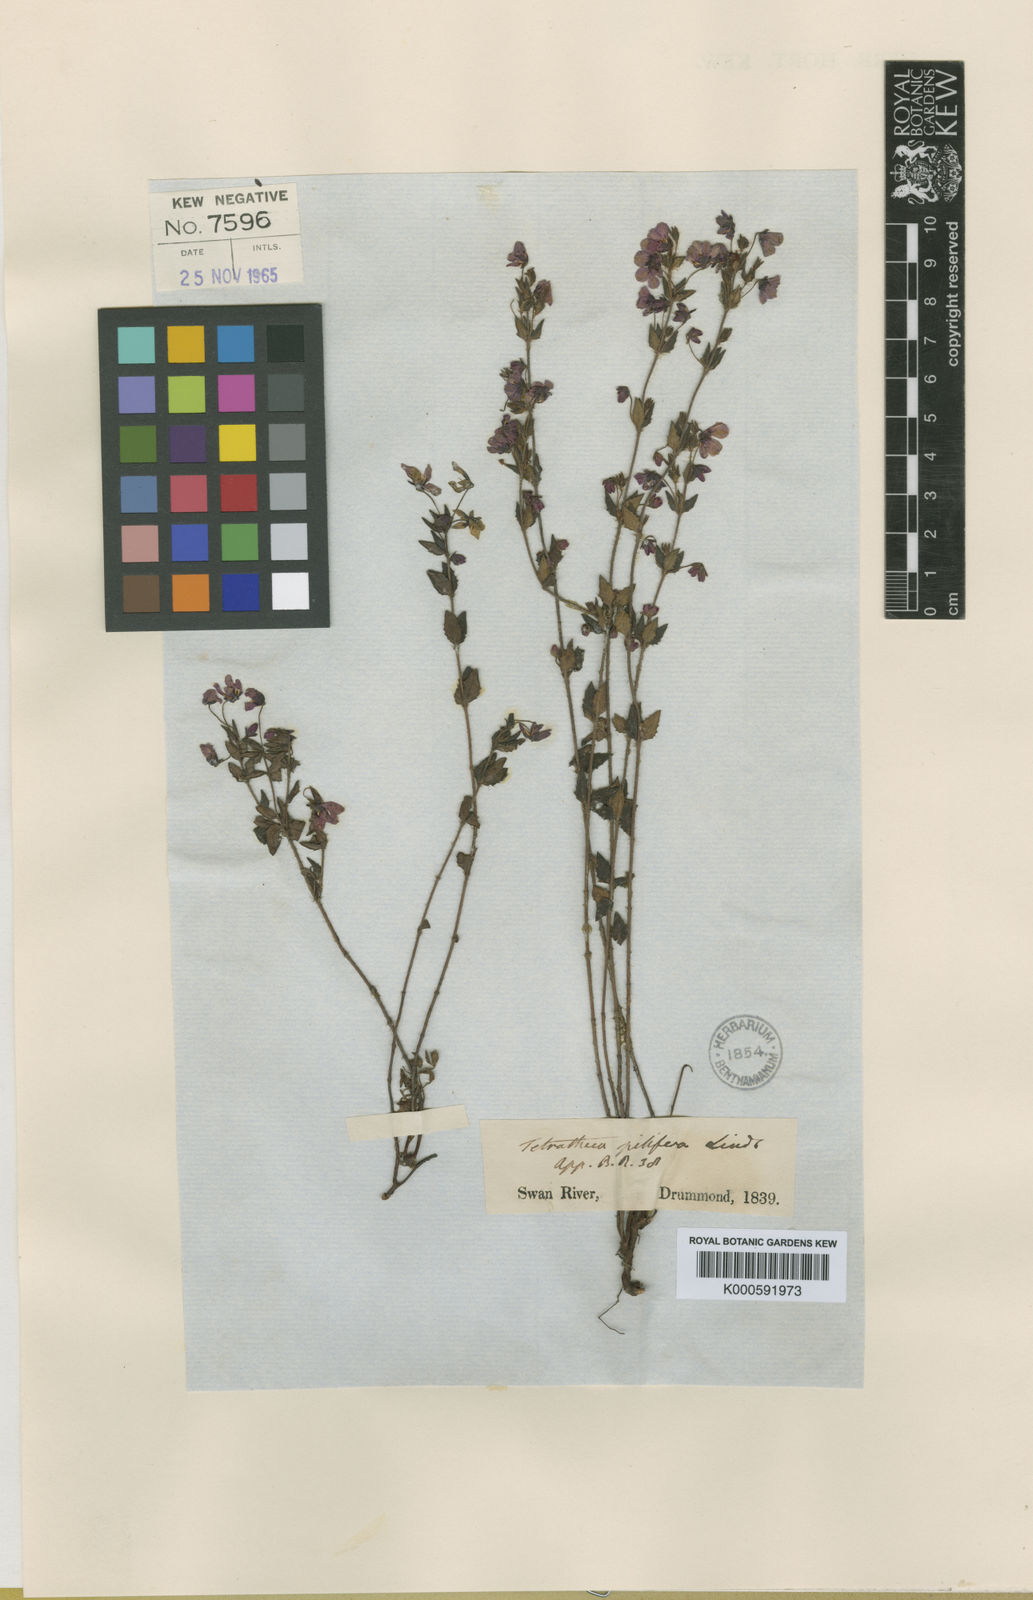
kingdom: Plantae
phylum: Tracheophyta
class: Magnoliopsida
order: Oxalidales
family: Elaeocarpaceae
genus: Tetratheca
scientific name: Tetratheca pilifera
